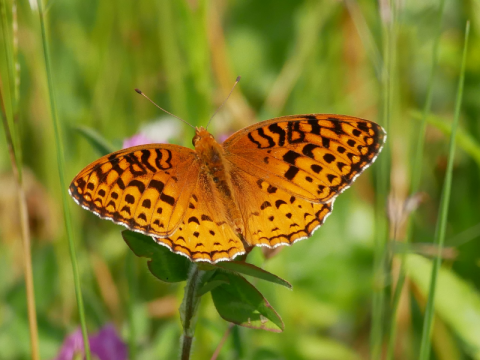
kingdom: Animalia
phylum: Arthropoda
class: Insecta
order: Lepidoptera
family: Nymphalidae
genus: Speyeria
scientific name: Speyeria aphrodite
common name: Aphrodite Fritillary
